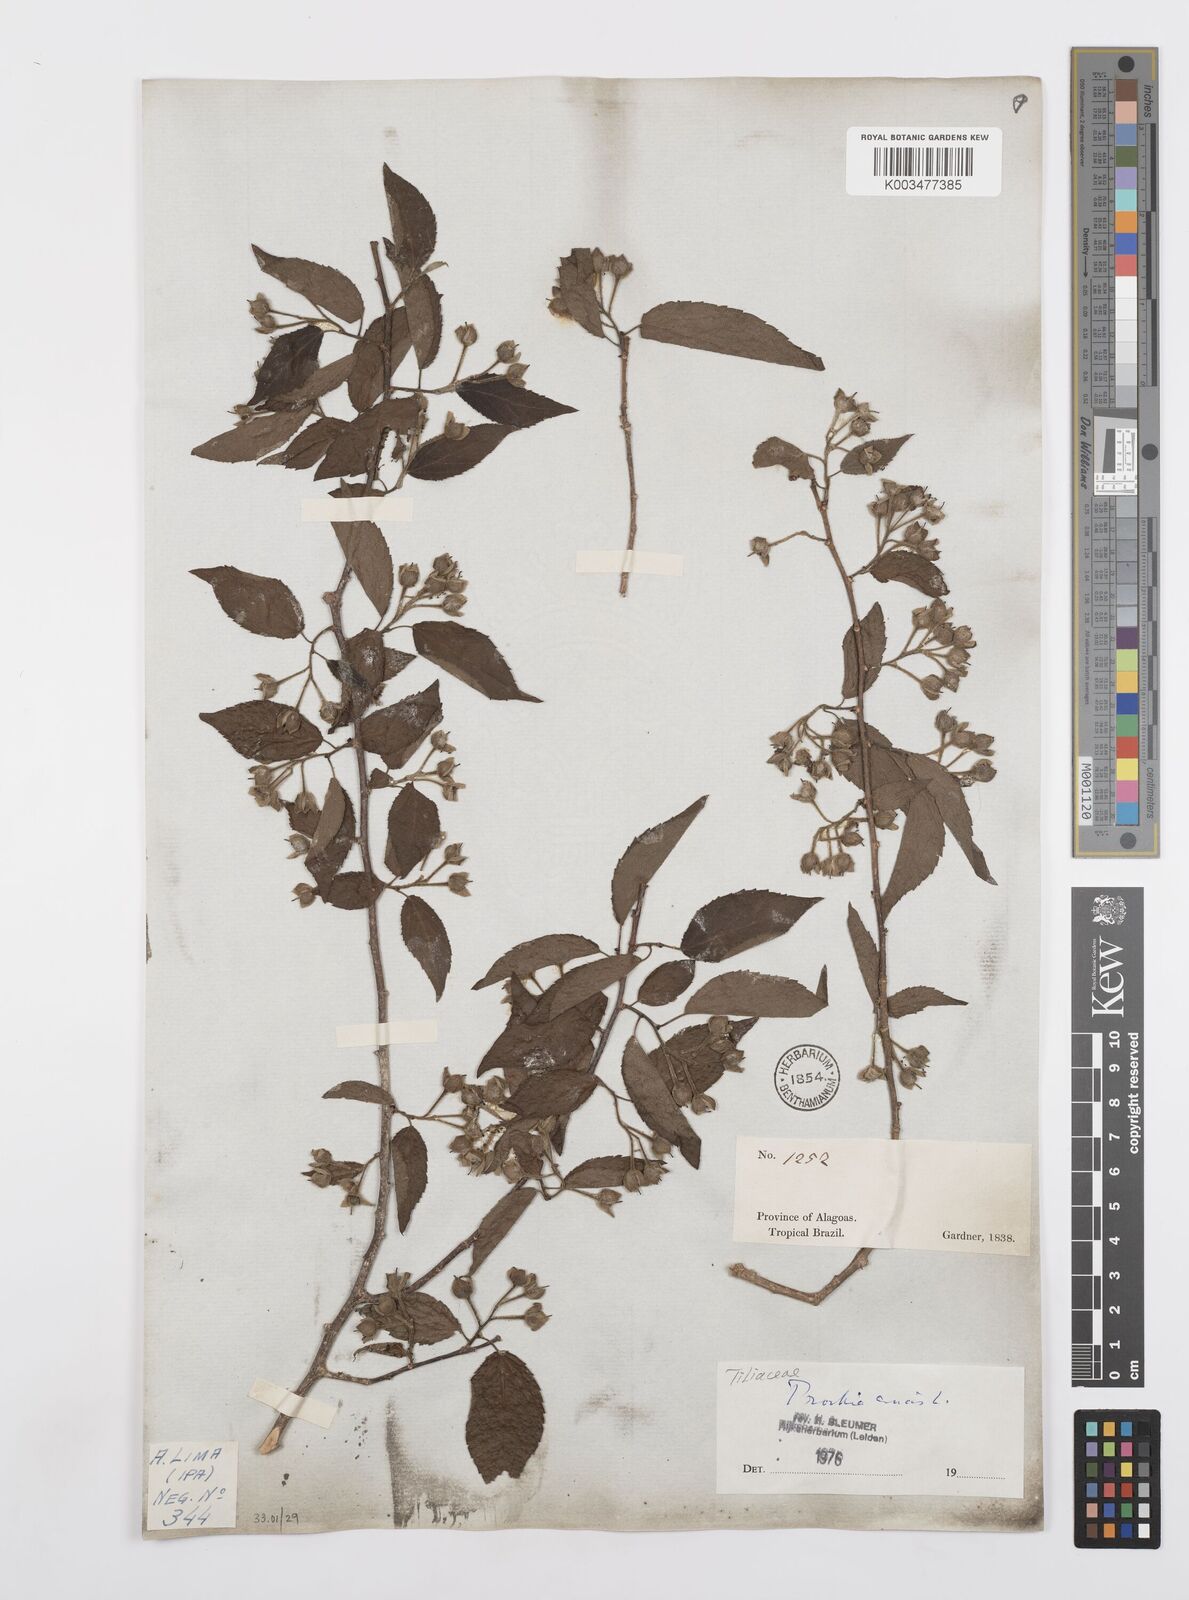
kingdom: Plantae
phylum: Tracheophyta
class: Magnoliopsida
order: Malpighiales
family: Salicaceae
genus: Prockia
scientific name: Prockia crucis
